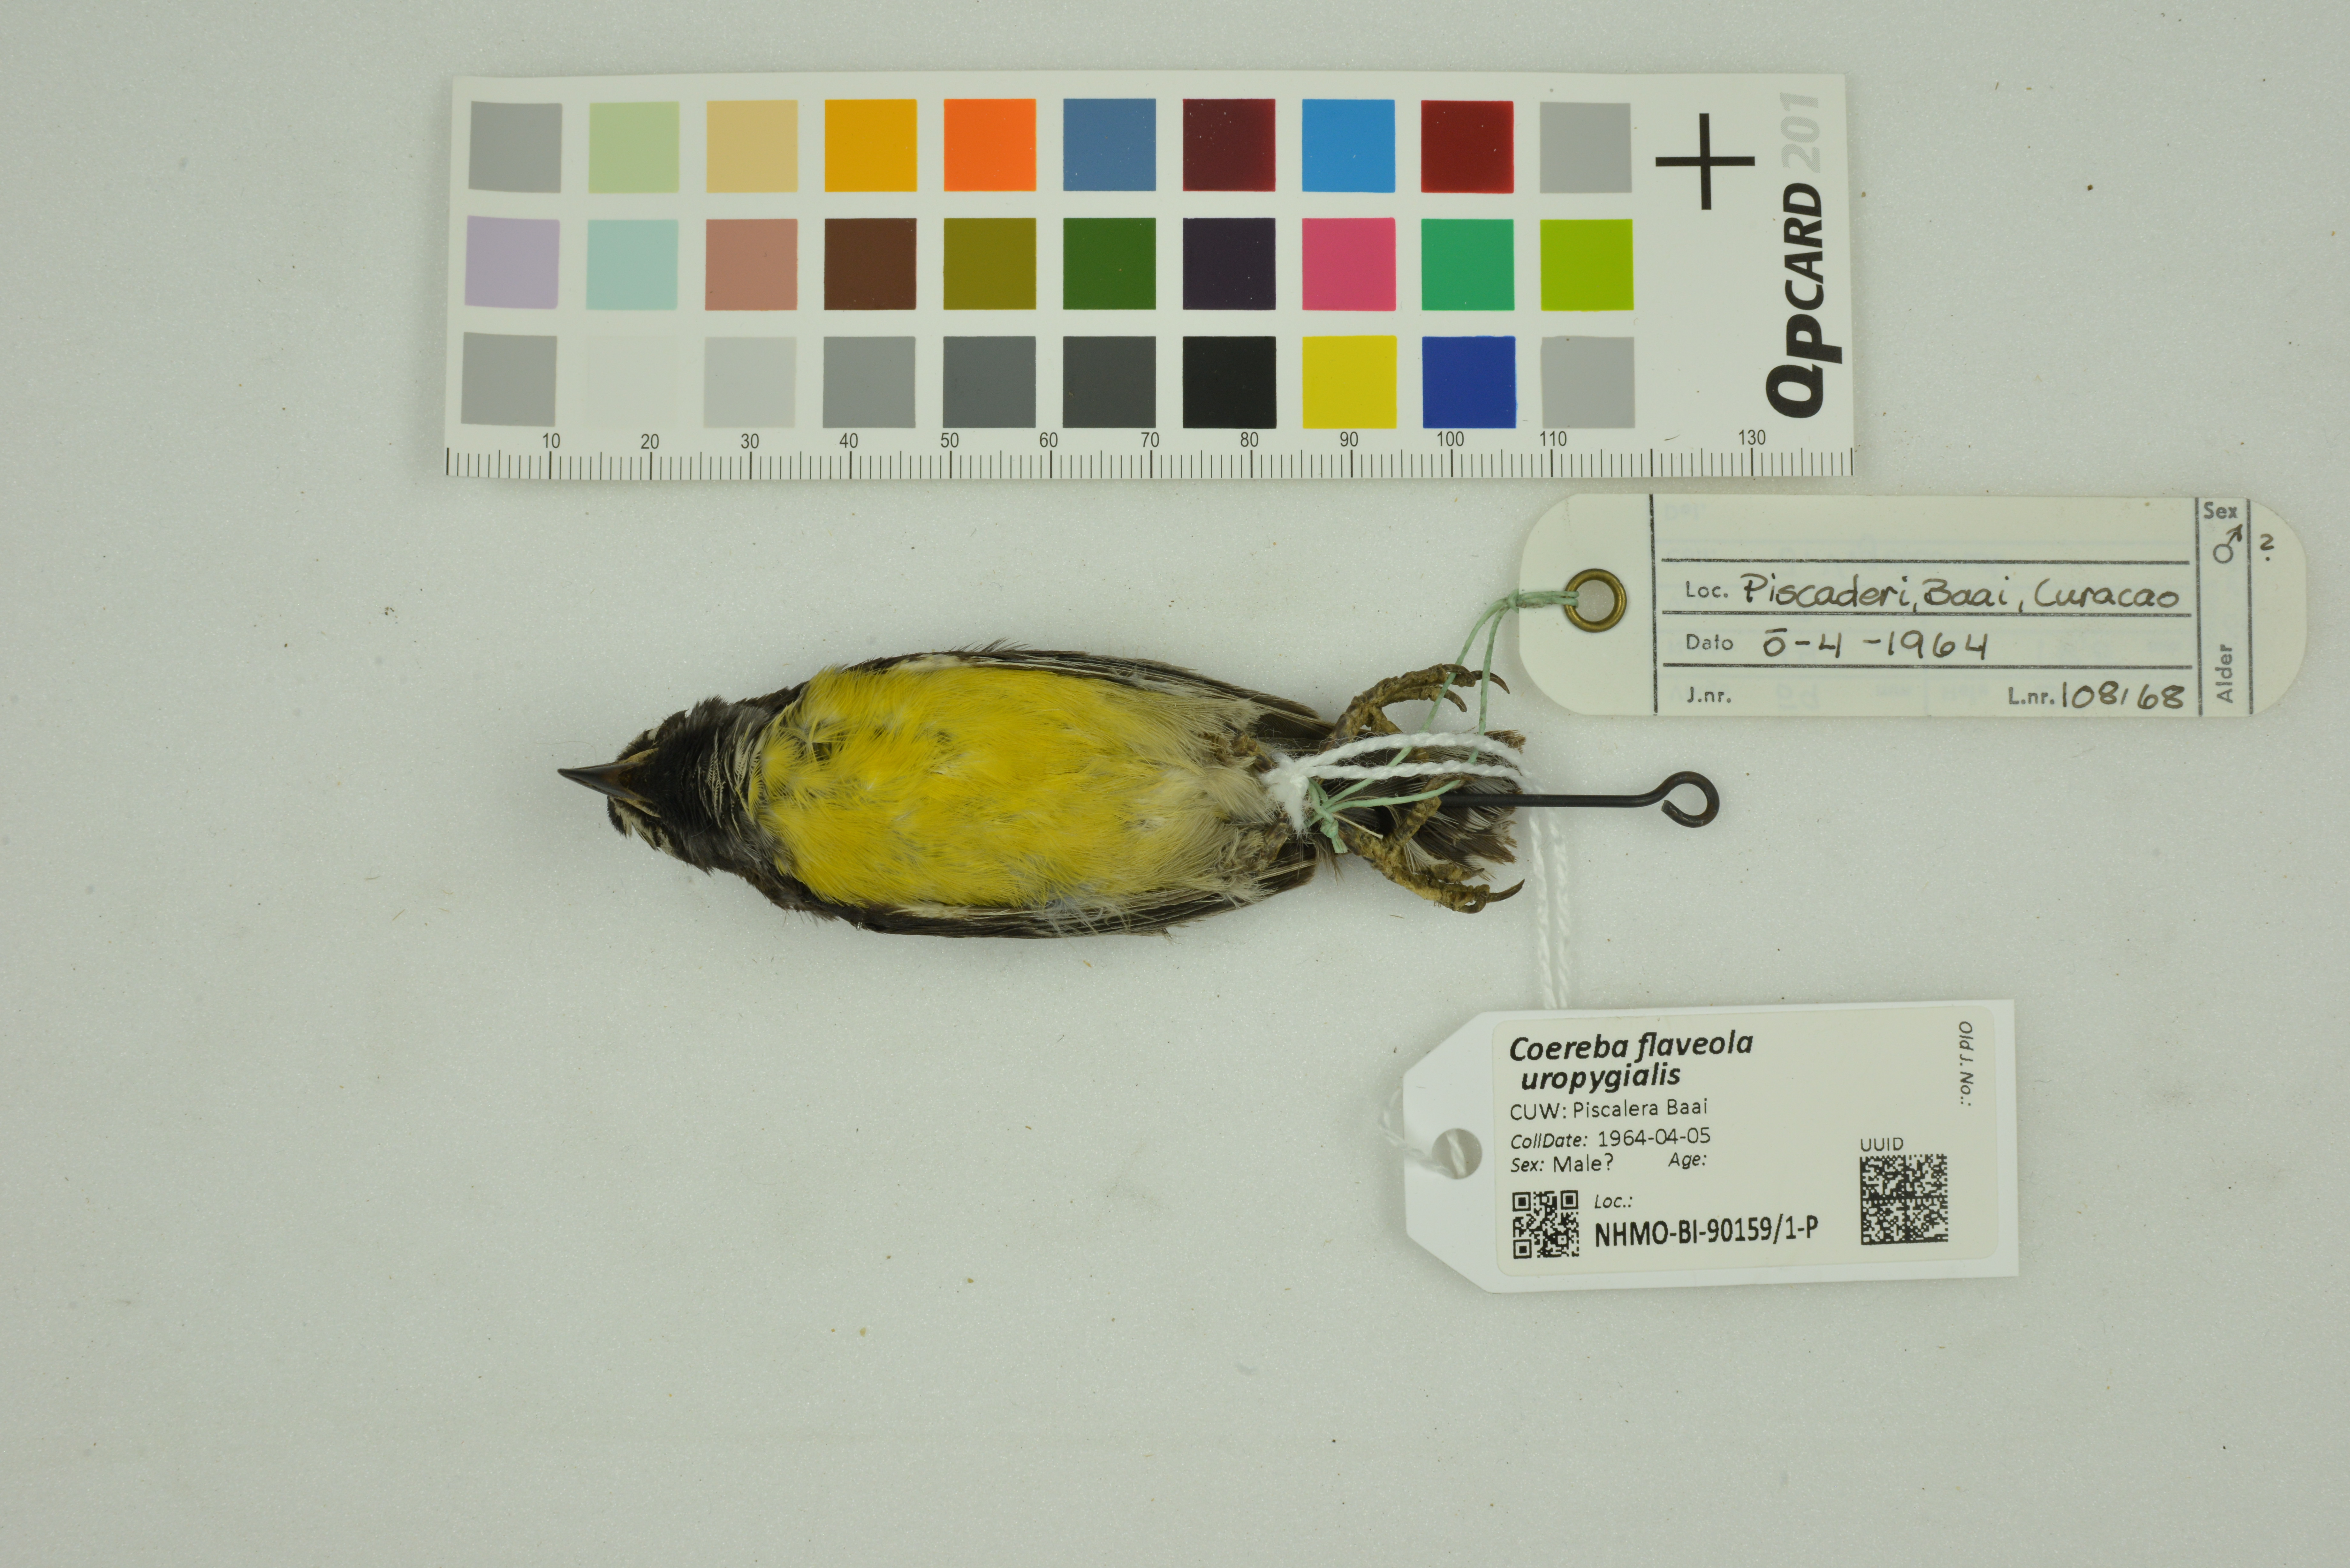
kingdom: Animalia
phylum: Chordata
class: Aves
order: Passeriformes
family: Thraupidae
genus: Coereba
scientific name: Coereba flaveola
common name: Bananaquit
